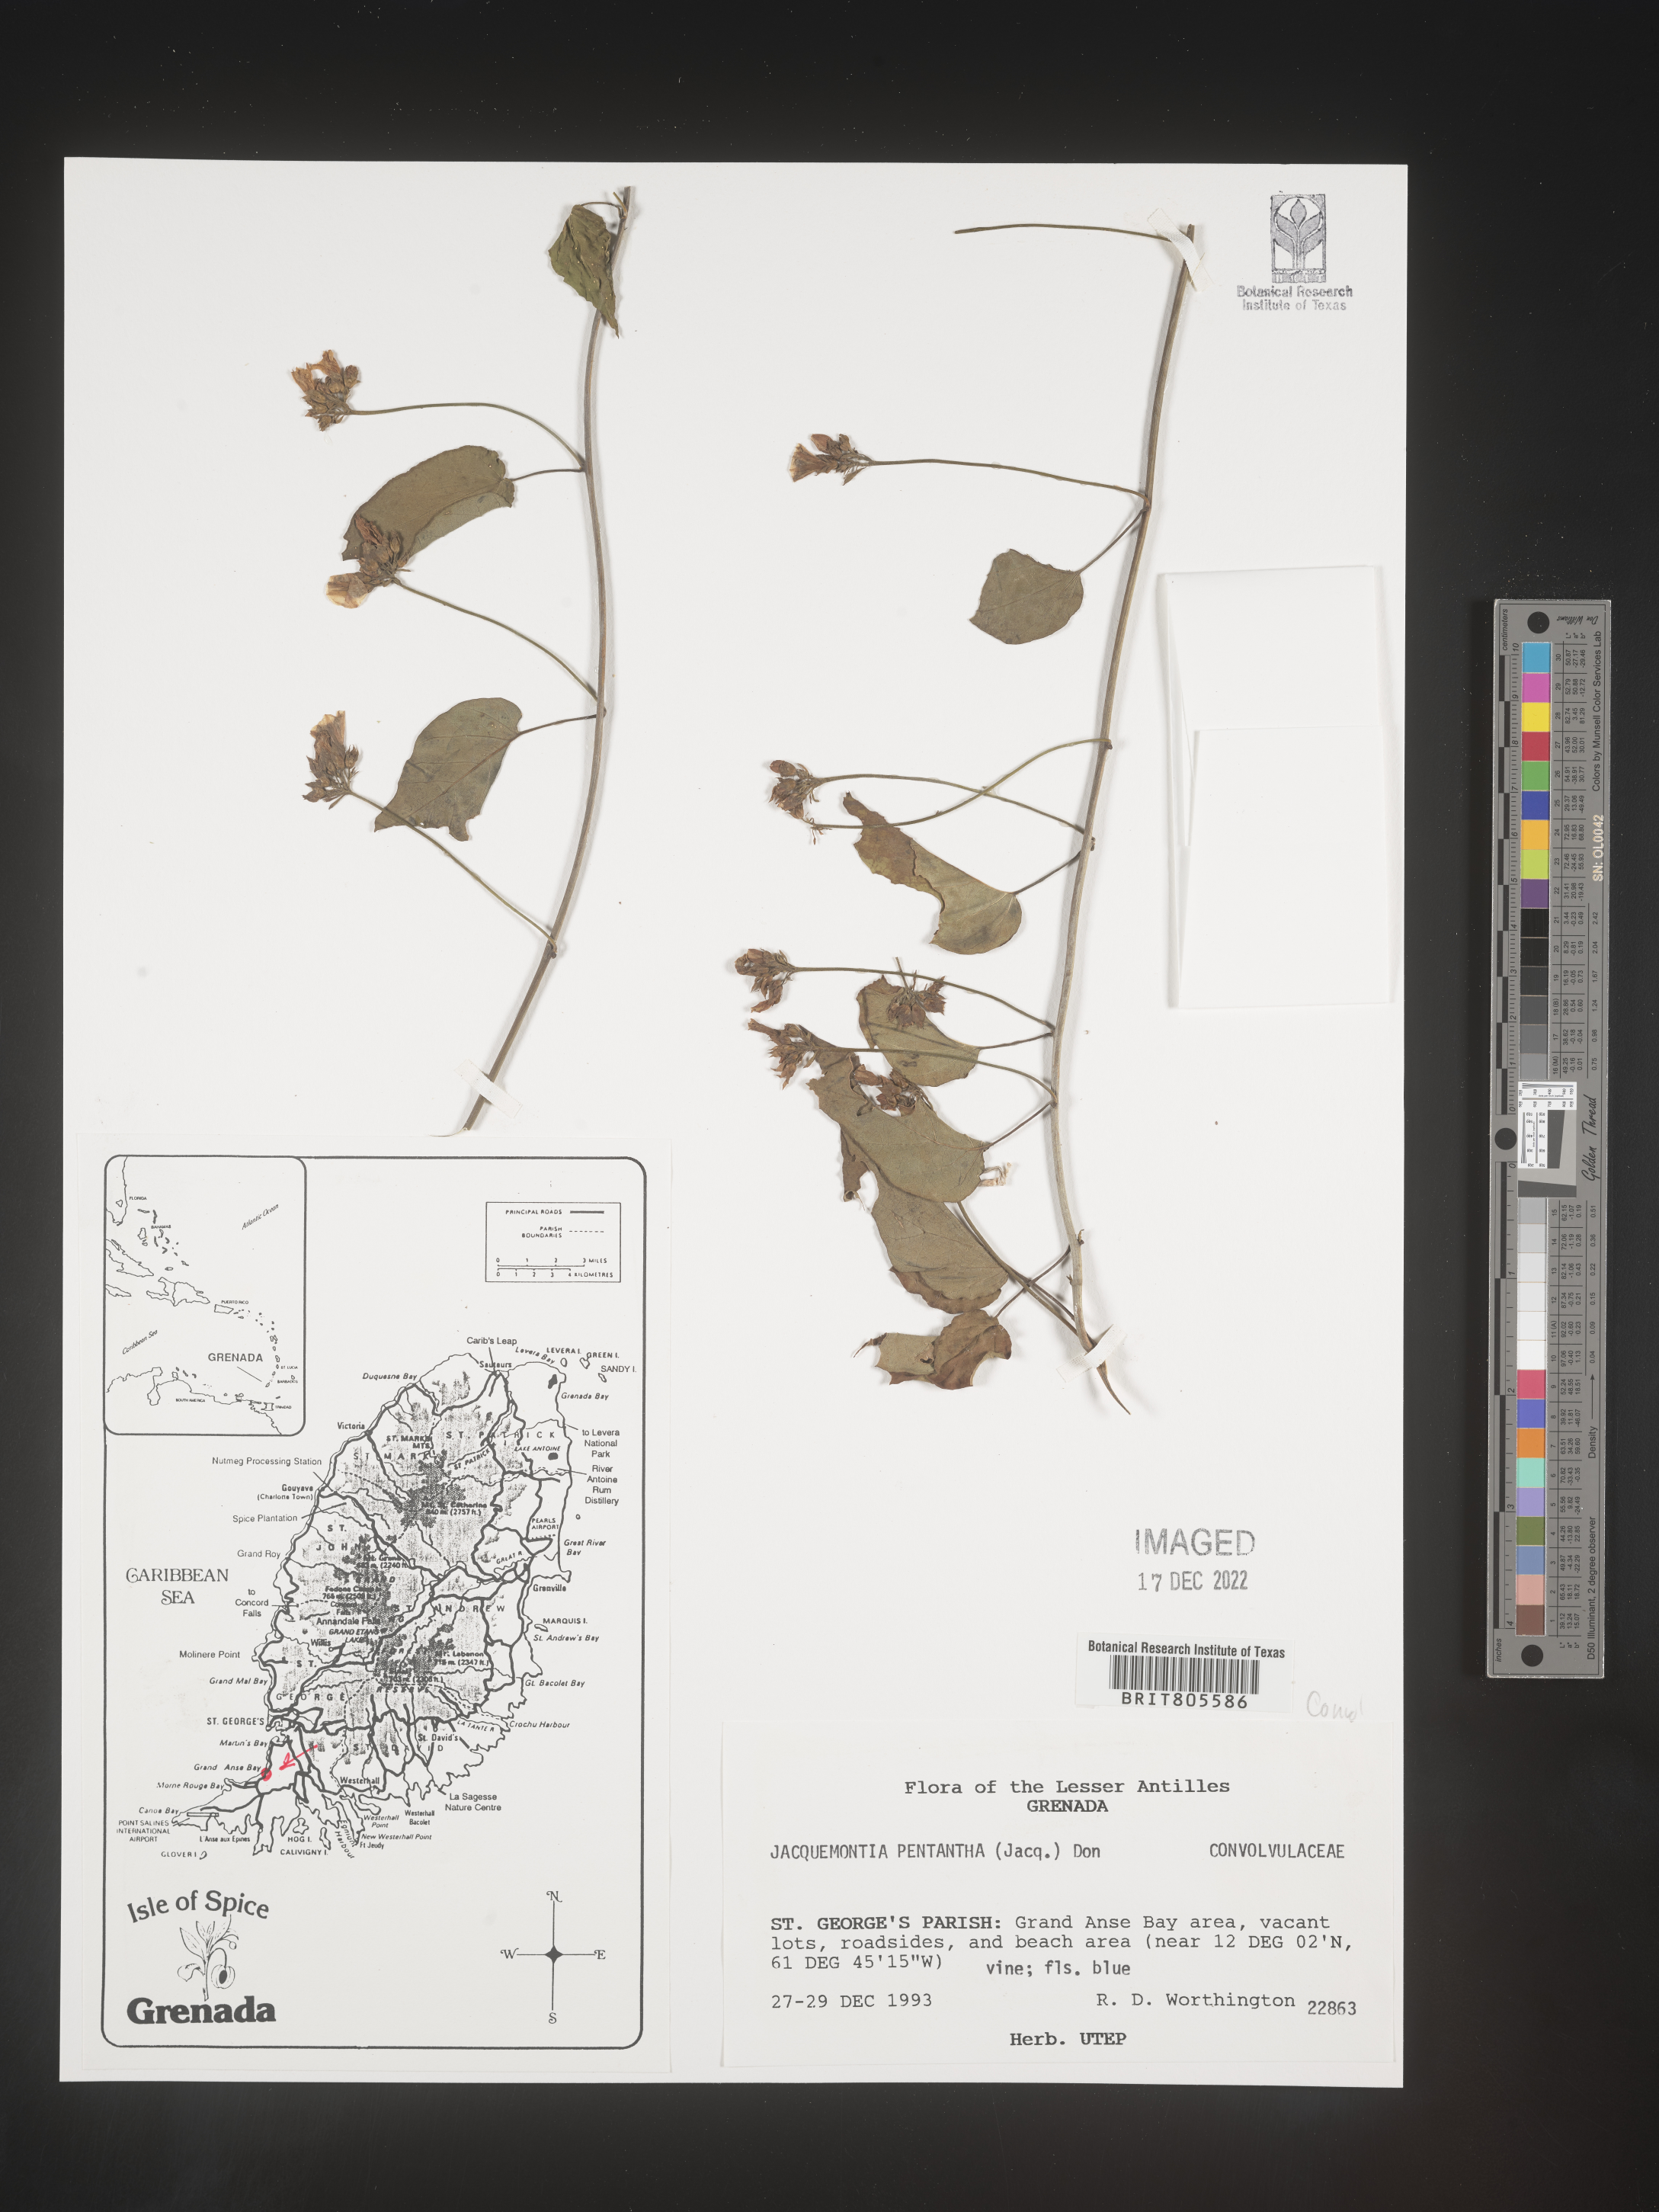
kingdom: Plantae
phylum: Tracheophyta
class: Magnoliopsida
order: Solanales
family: Convolvulaceae
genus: Jacquemontia
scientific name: Jacquemontia
